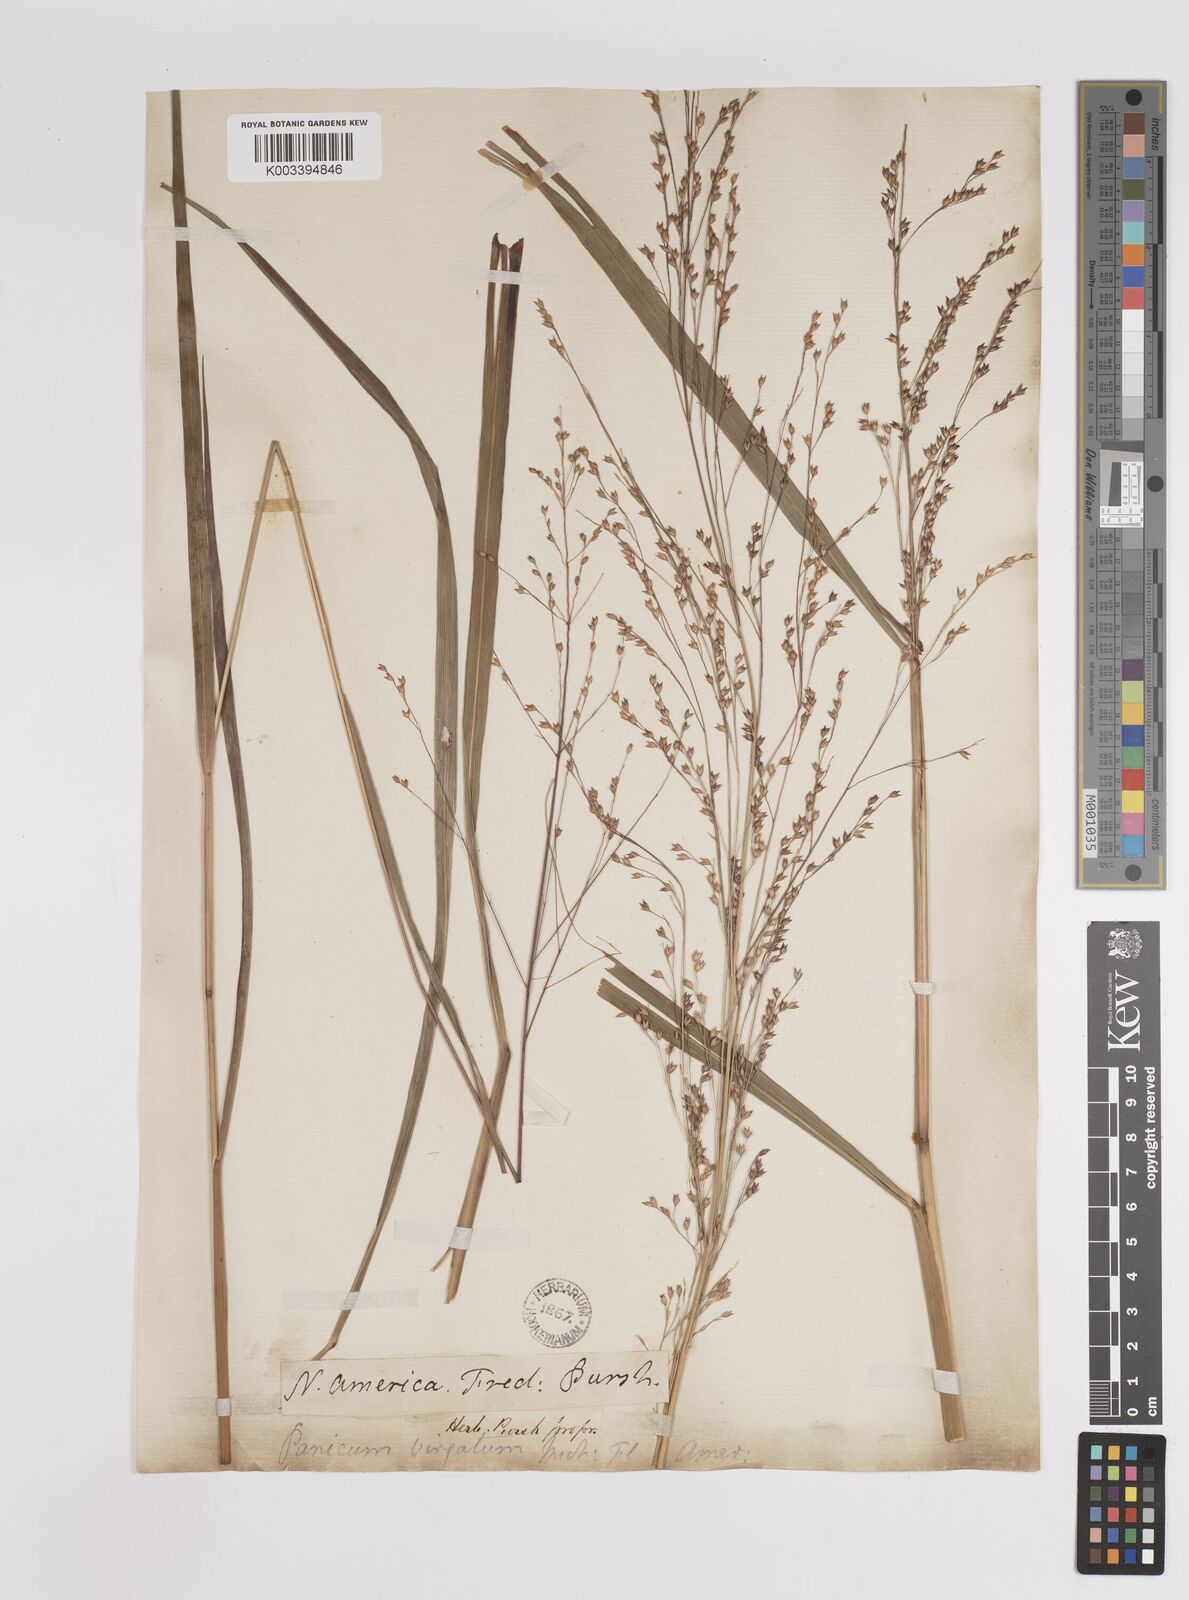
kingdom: Plantae
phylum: Tracheophyta
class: Liliopsida
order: Poales
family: Poaceae
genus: Panicum
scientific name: Panicum virgatum
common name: Switchgrass
